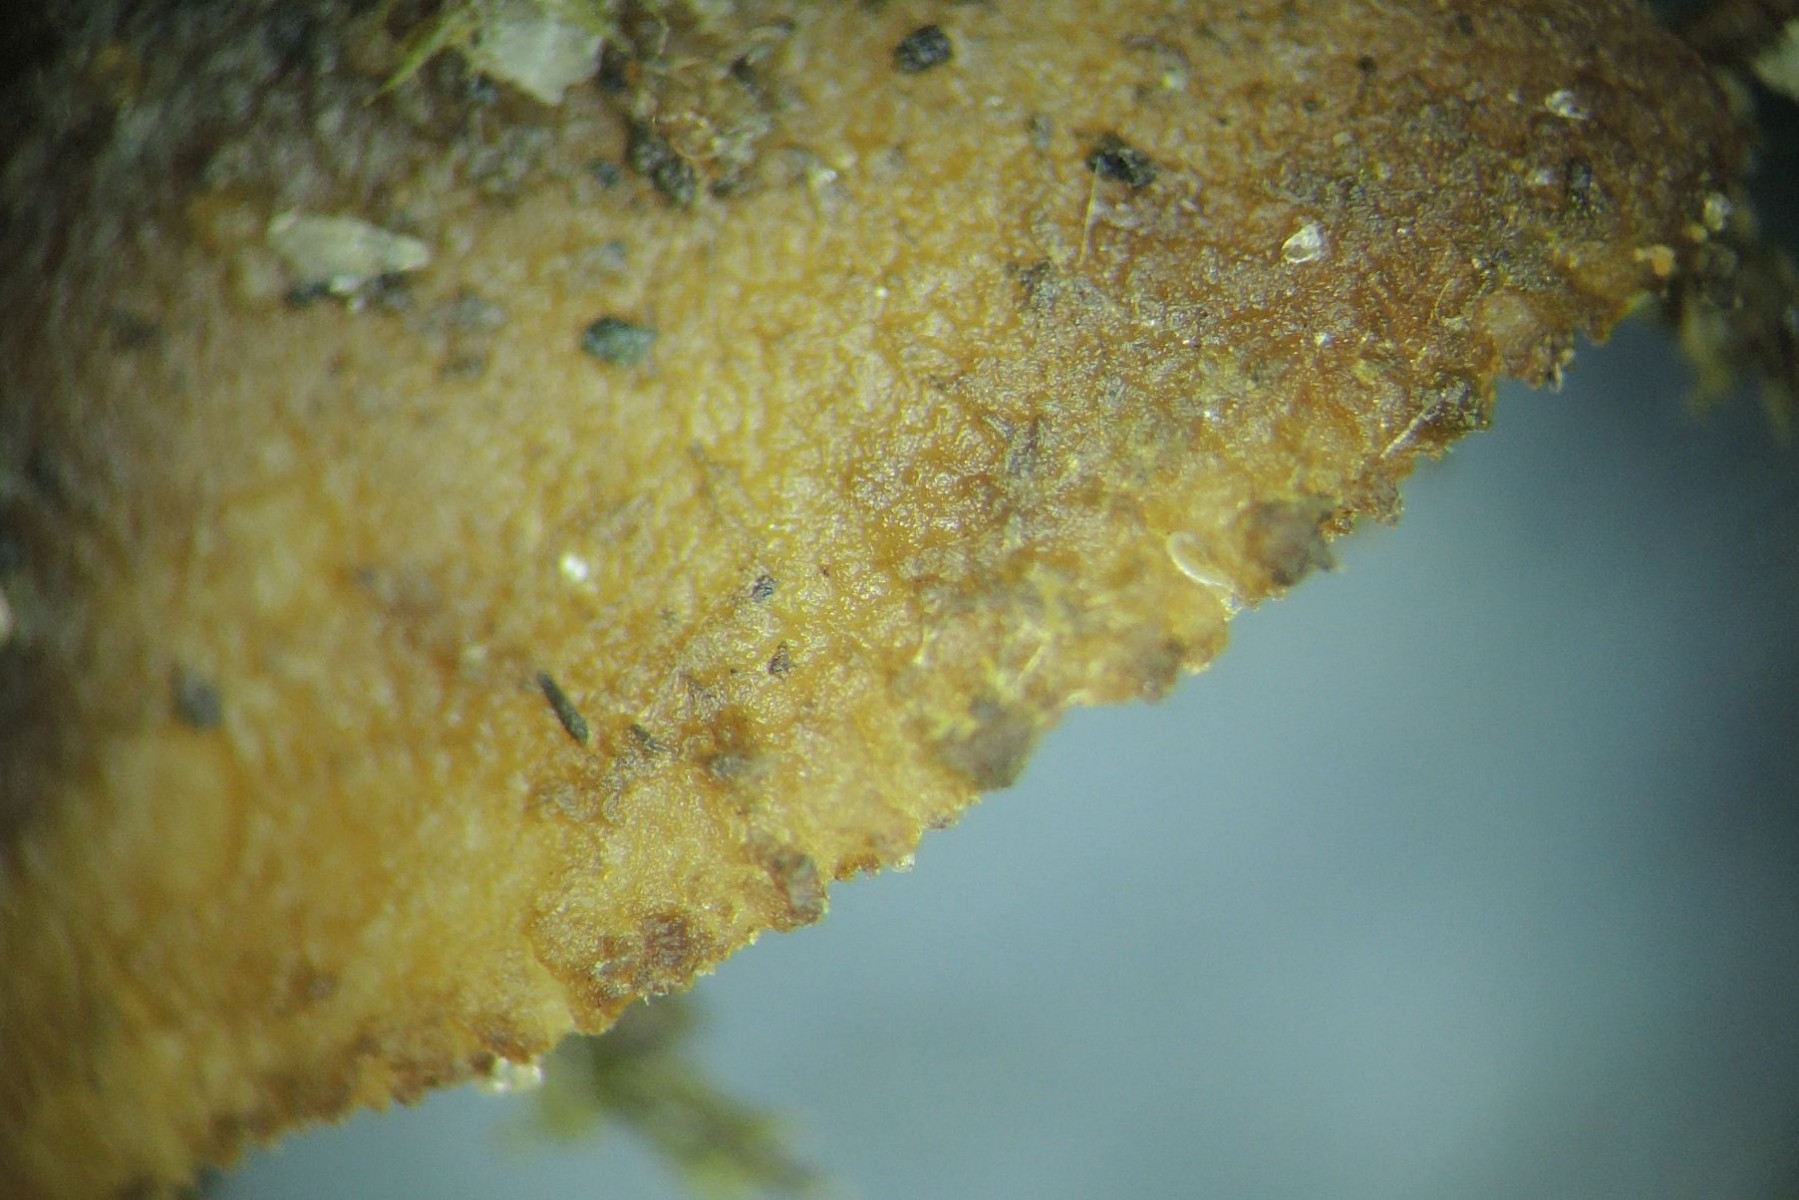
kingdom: Fungi
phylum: Ascomycota
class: Pezizomycetes
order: Pezizales
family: Pyronemataceae
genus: Geopora
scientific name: Geopora arenicola
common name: trøffel-jordbæger
